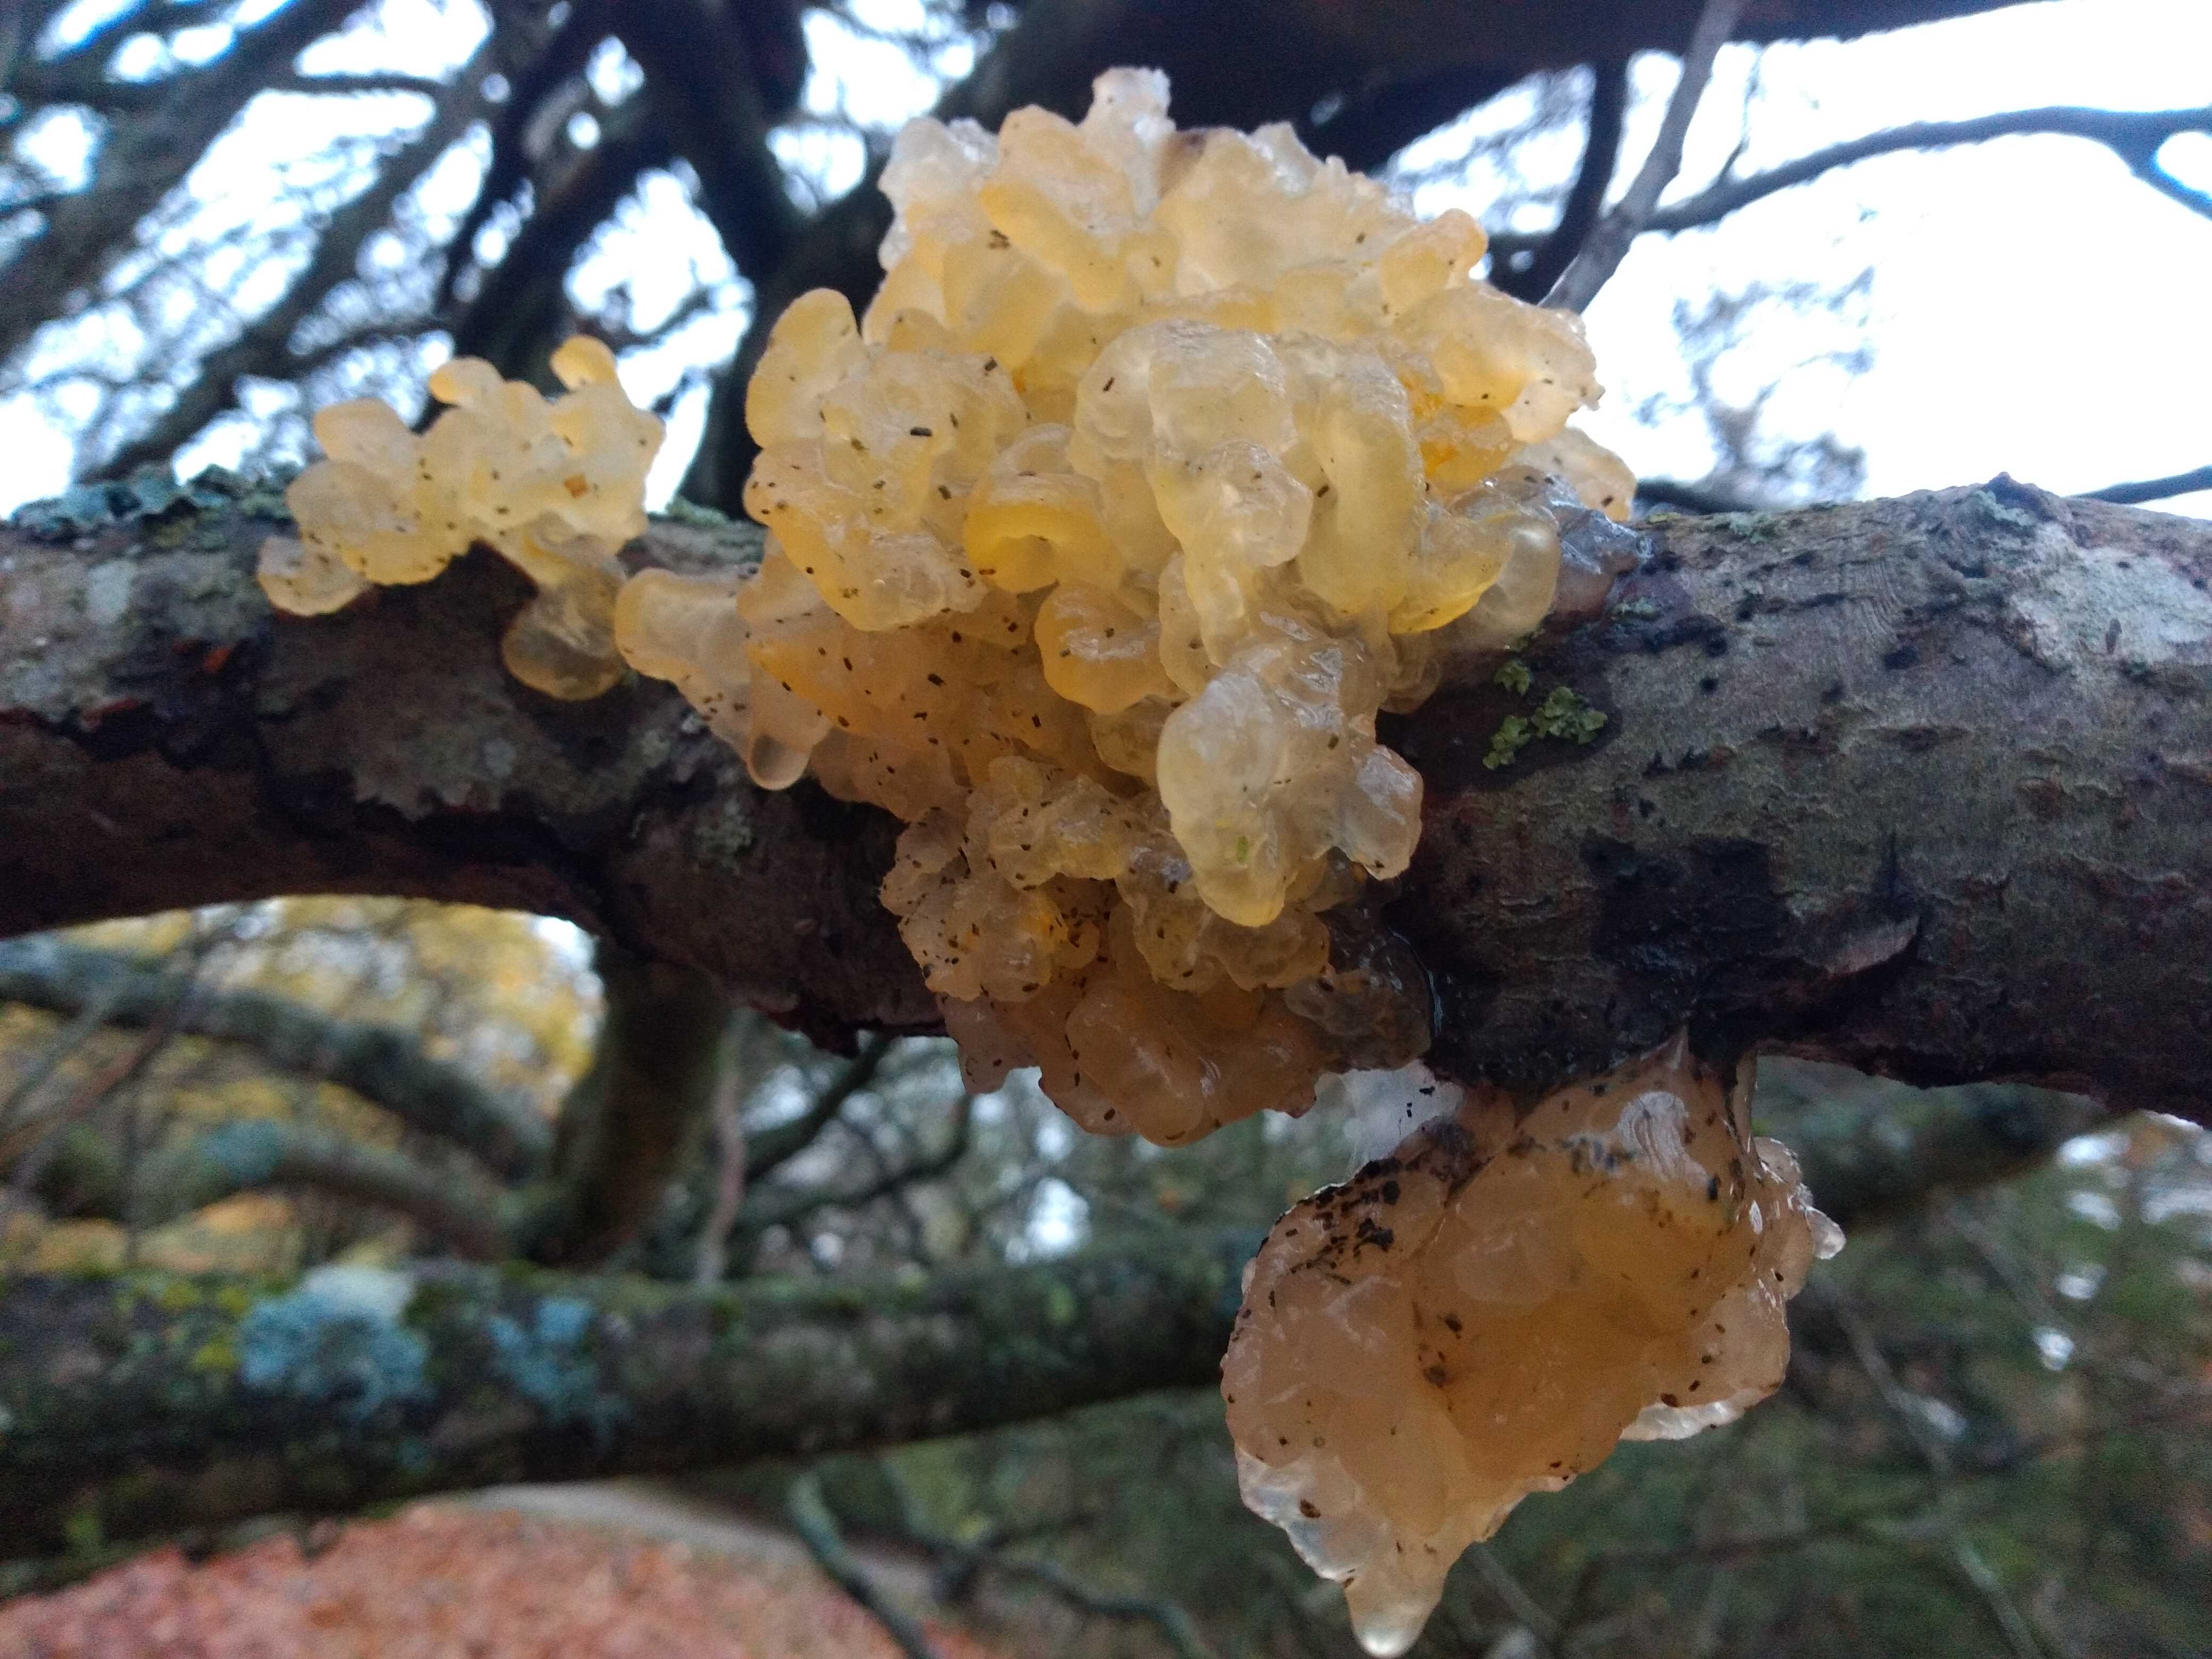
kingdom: Fungi
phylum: Basidiomycota
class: Tremellomycetes
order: Tremellales
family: Tremellaceae
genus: Tremella
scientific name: Tremella mesenterica
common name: gul bævresvamp
